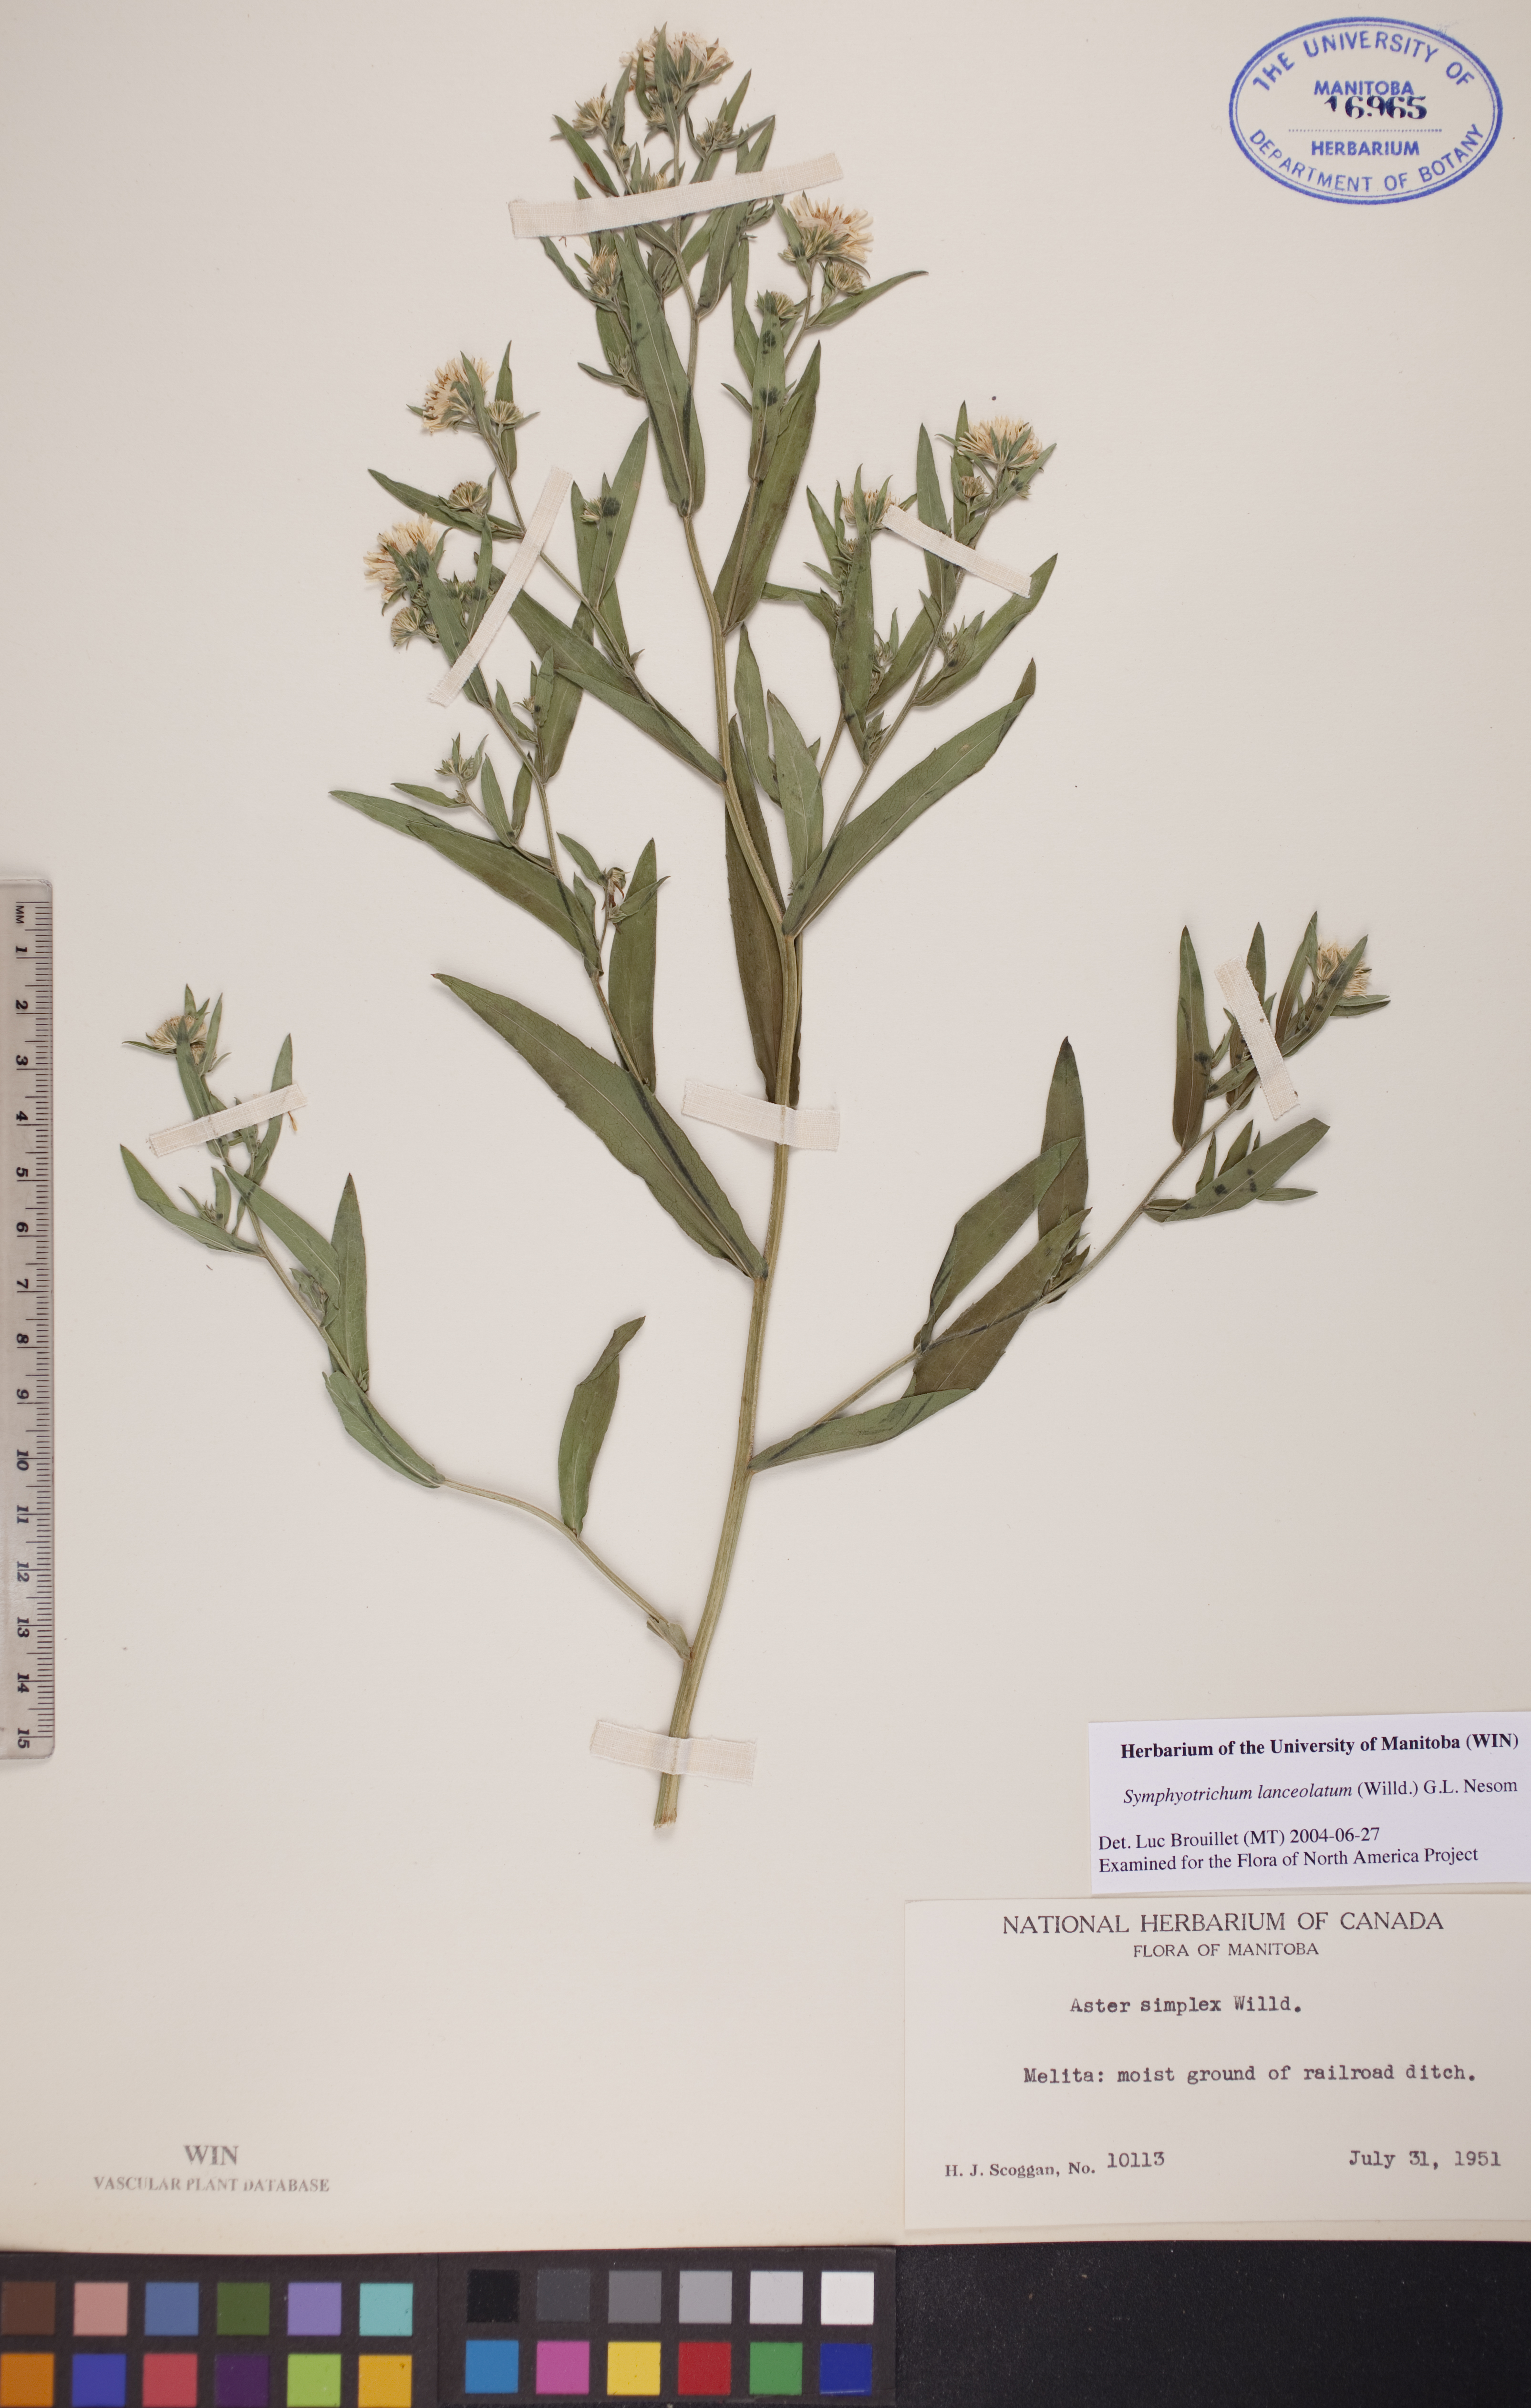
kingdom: Plantae
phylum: Tracheophyta
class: Magnoliopsida
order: Asterales
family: Asteraceae
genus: Symphyotrichum
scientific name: Symphyotrichum lanceolatum
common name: Panicled aster
